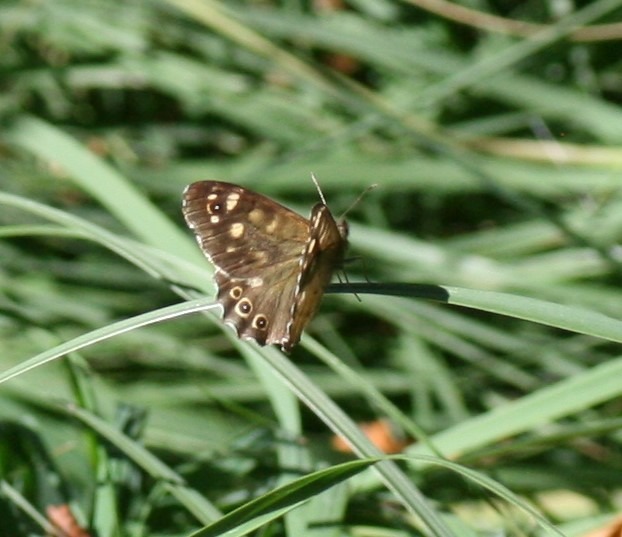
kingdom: Animalia
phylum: Arthropoda
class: Insecta
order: Lepidoptera
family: Nymphalidae
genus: Pararge
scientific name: Pararge aegeria
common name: Skovrandøje
